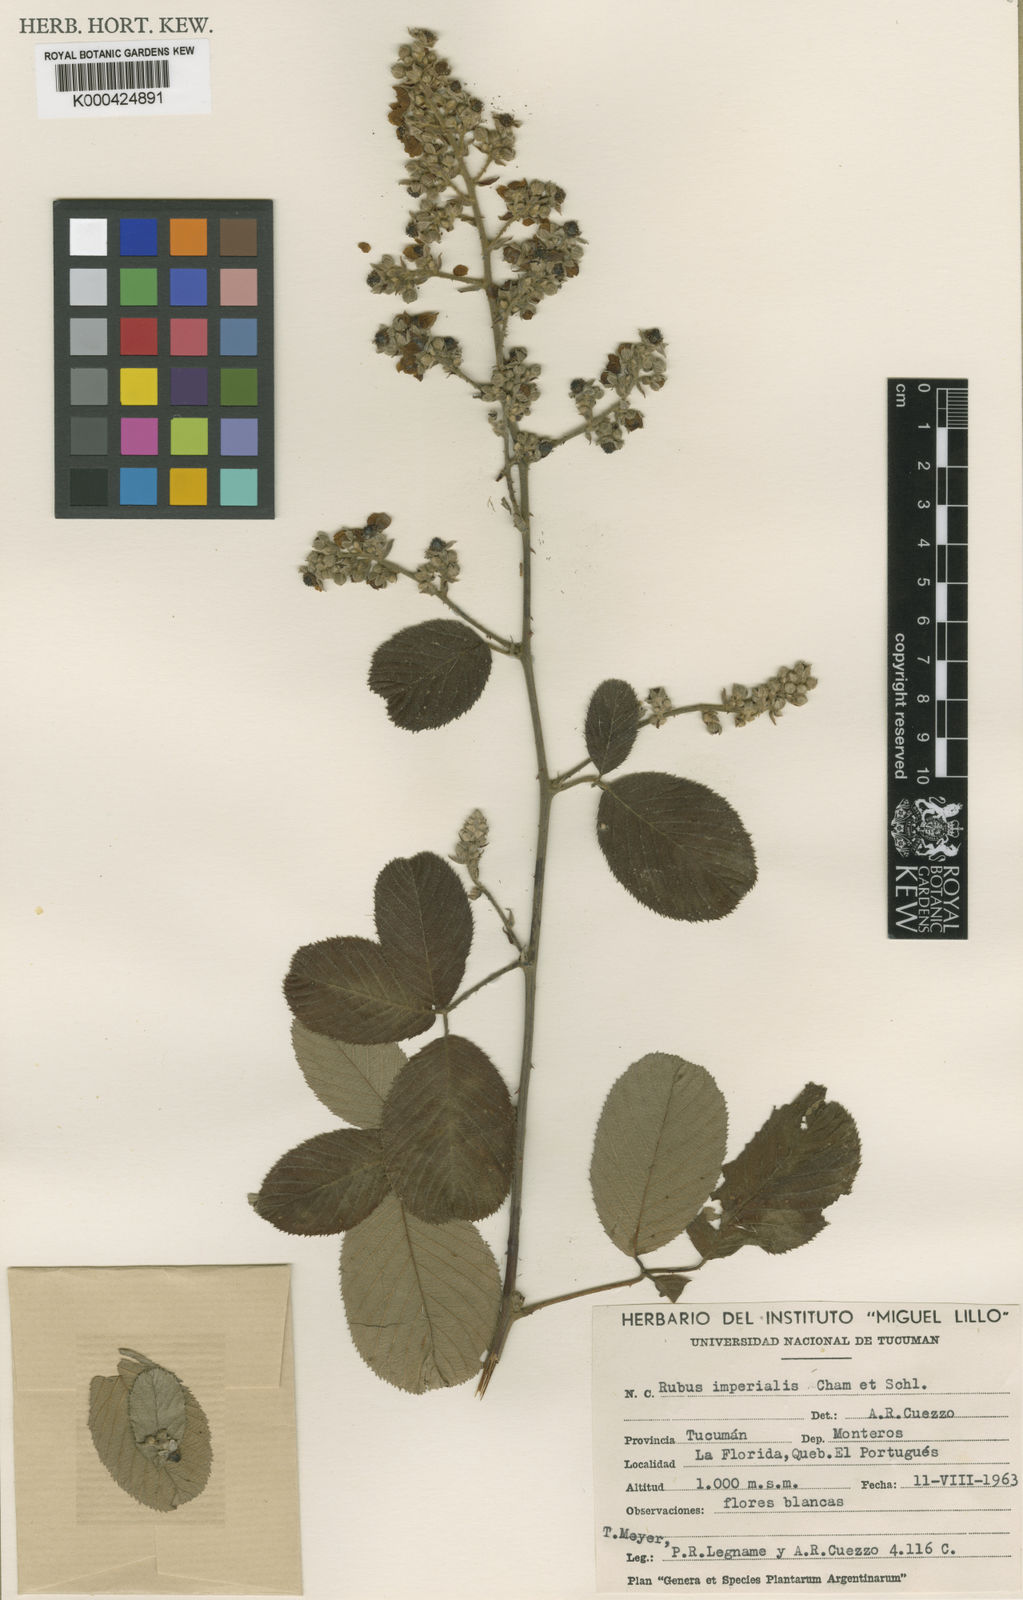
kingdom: Plantae
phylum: Tracheophyta
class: Magnoliopsida
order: Rosales
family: Rosaceae
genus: Rubus
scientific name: Rubus
